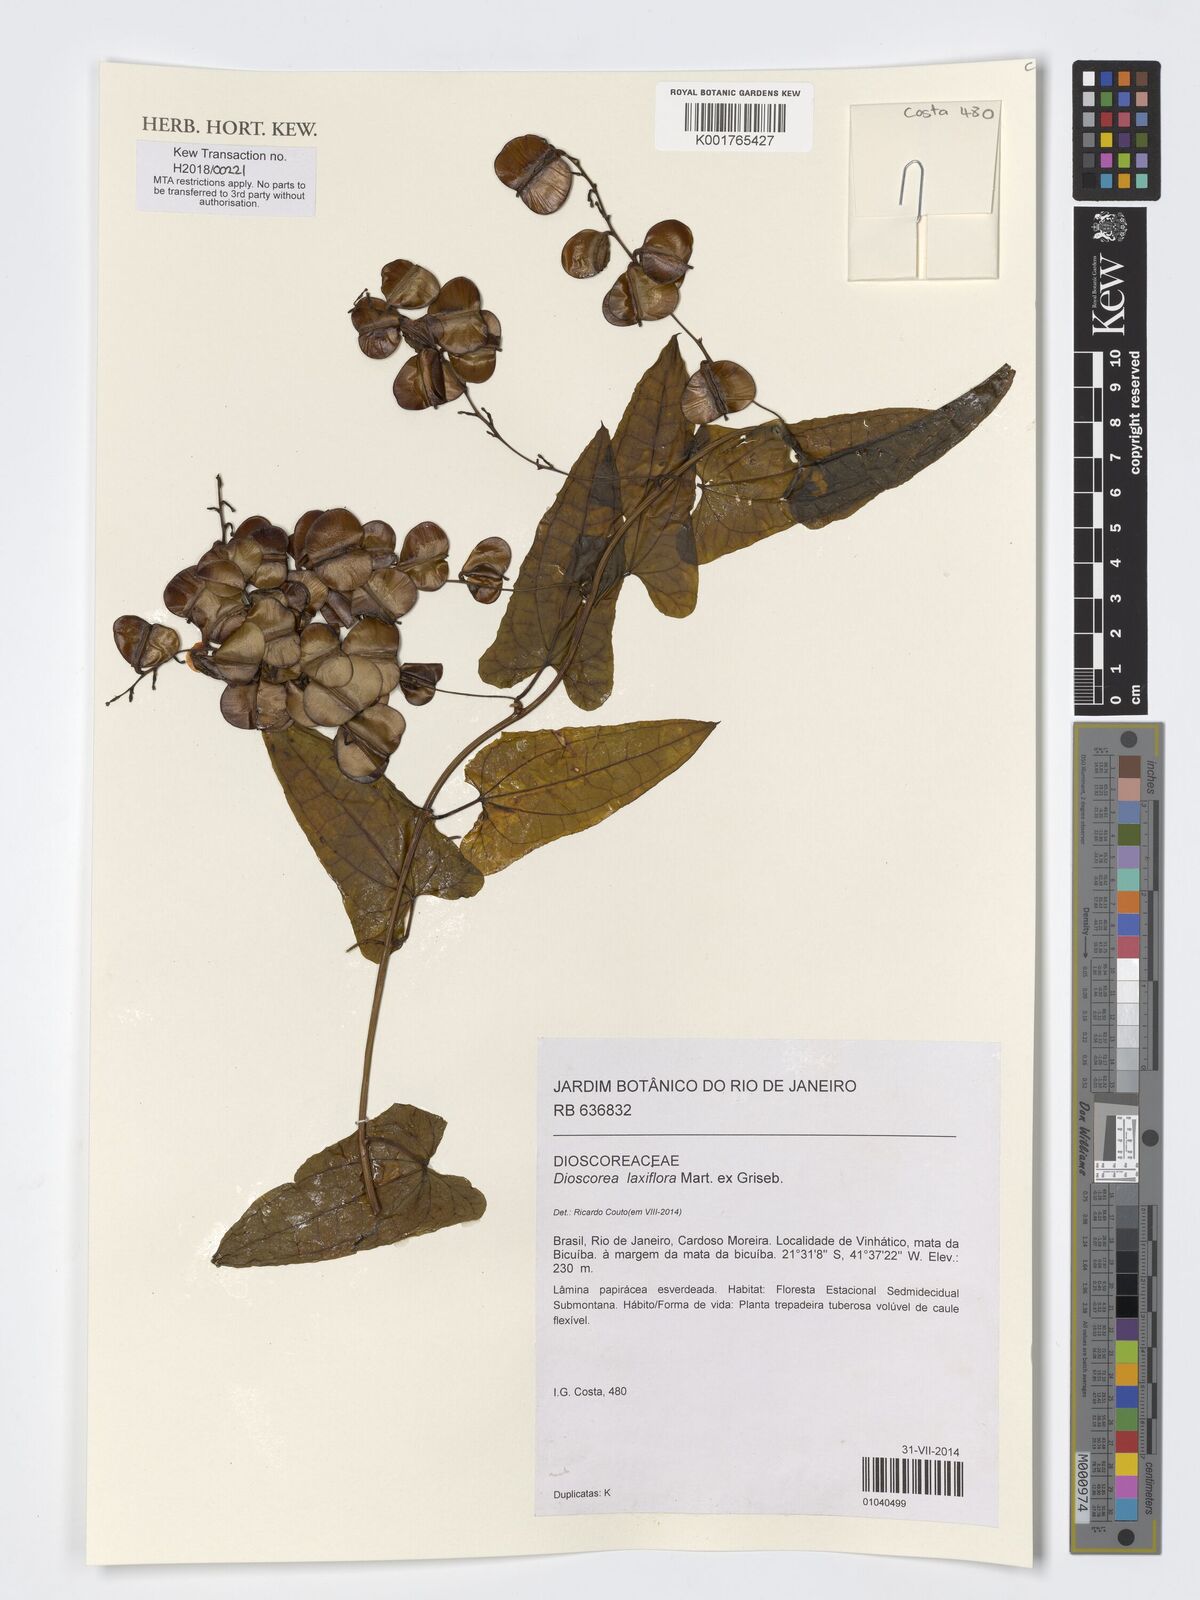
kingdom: Plantae
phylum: Tracheophyta
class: Liliopsida
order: Dioscoreales
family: Dioscoreaceae
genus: Dioscorea
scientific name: Dioscorea laxiflora
